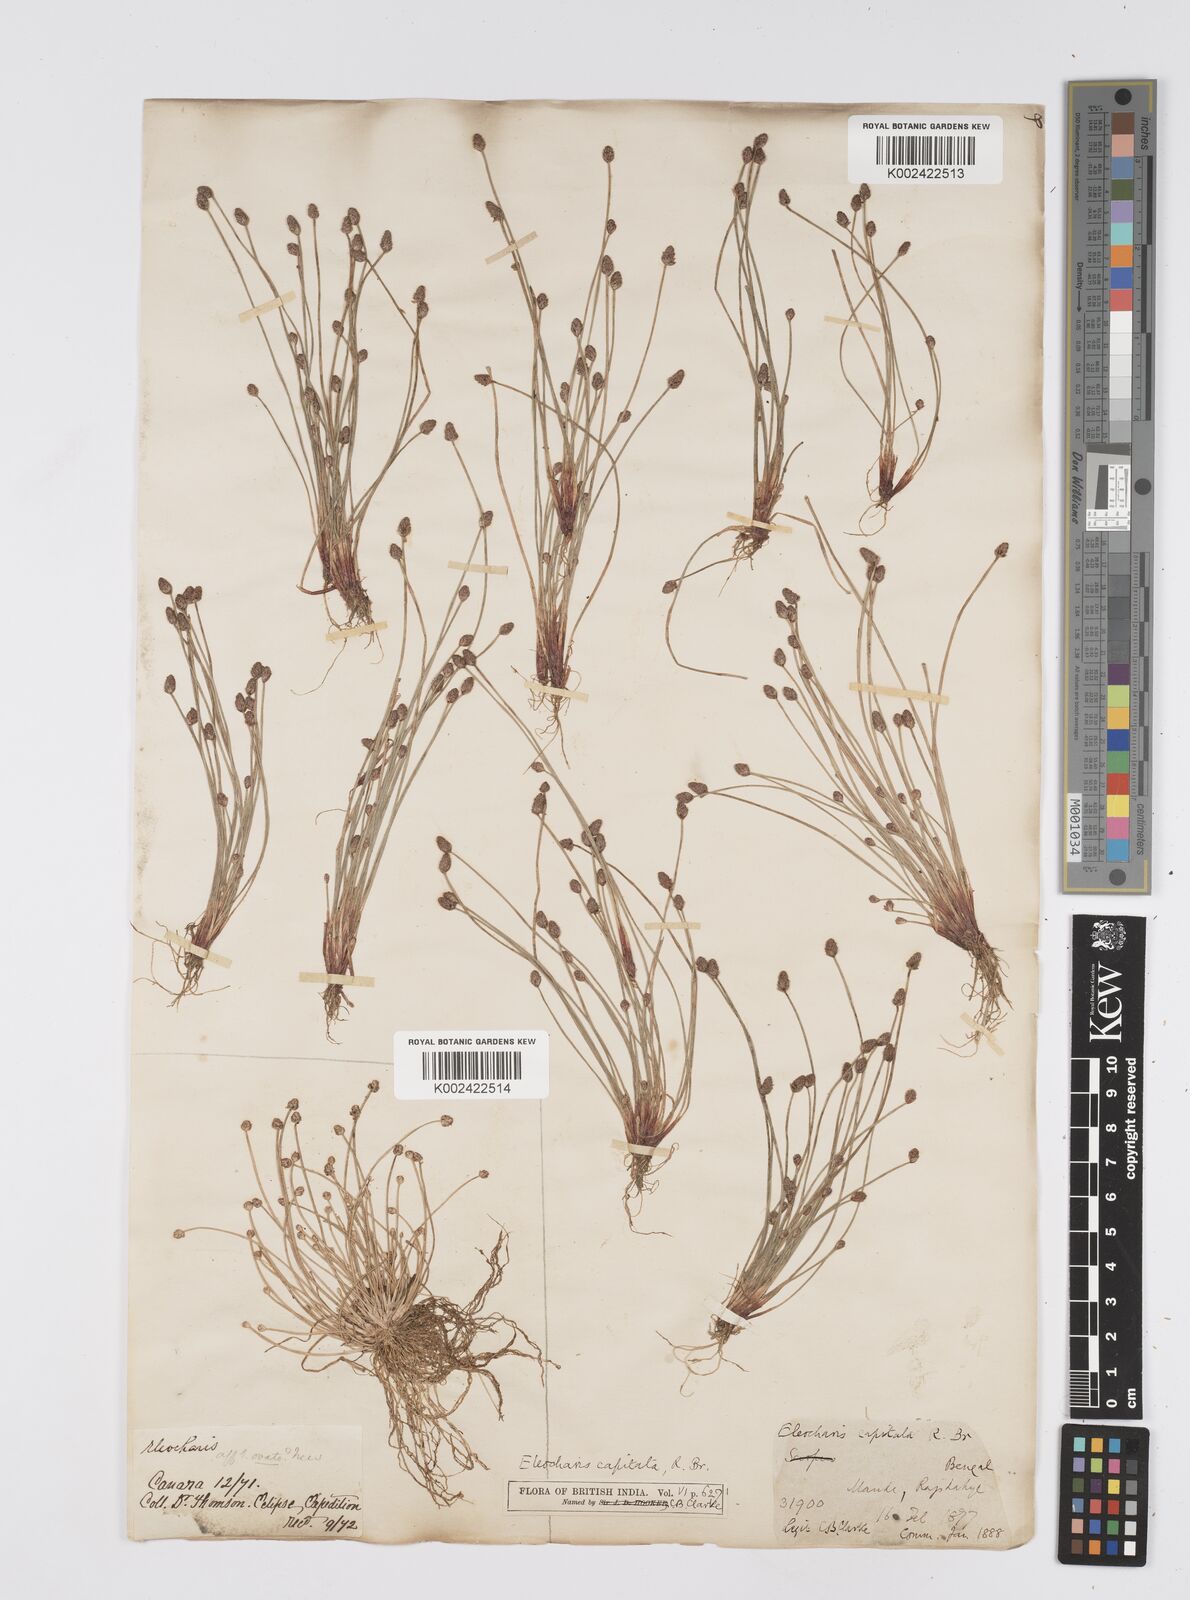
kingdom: Plantae
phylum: Tracheophyta
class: Liliopsida
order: Poales
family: Cyperaceae
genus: Eleocharis
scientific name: Eleocharis geniculata
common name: Canada spikesedge
